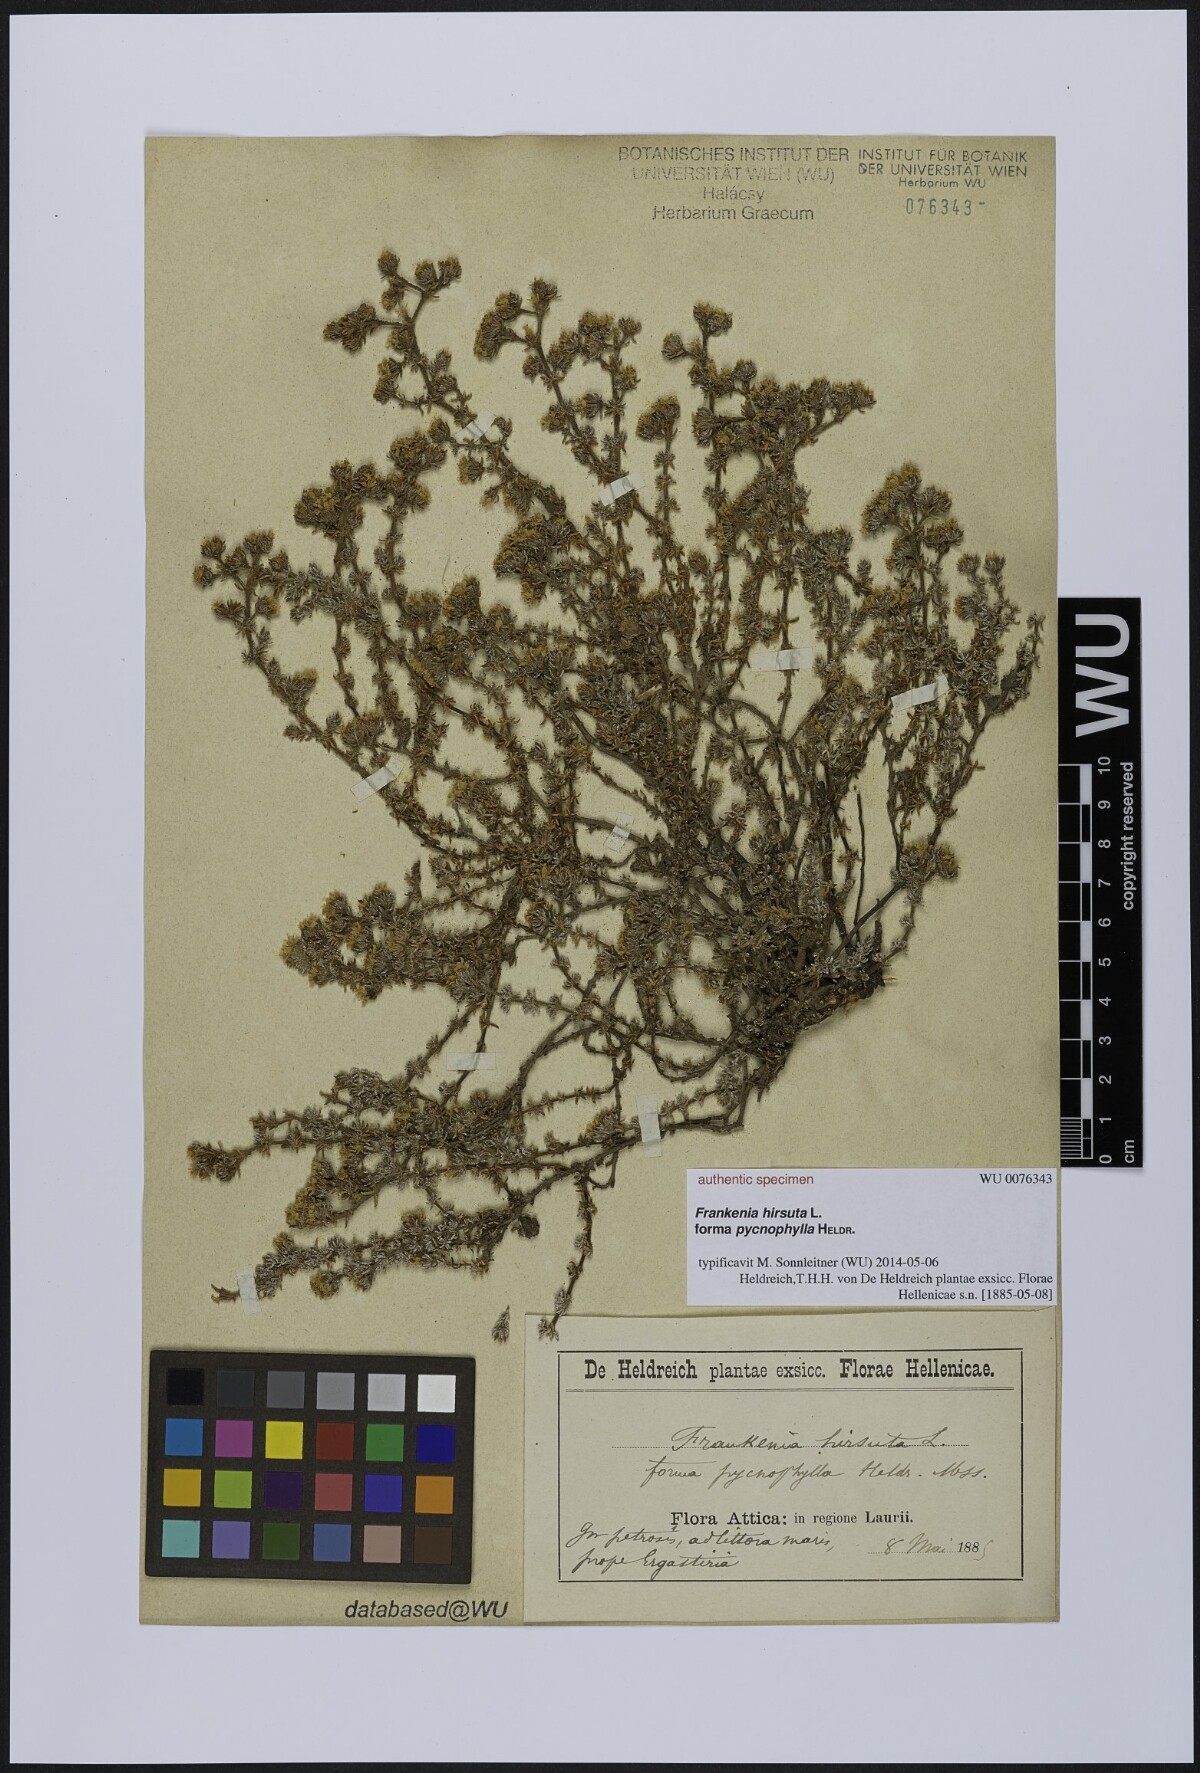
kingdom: Plantae
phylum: Tracheophyta
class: Magnoliopsida
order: Caryophyllales
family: Frankeniaceae
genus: Frankenia
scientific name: Frankenia hirsuta
